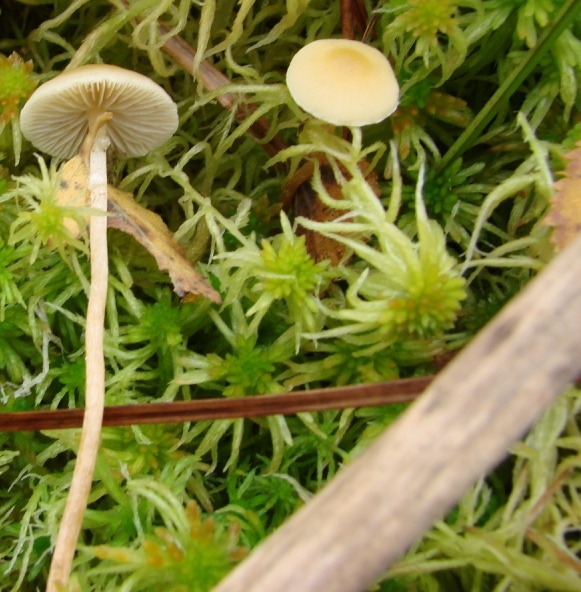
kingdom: Fungi
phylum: Basidiomycota
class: Agaricomycetes
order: Agaricales
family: Strophariaceae
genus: Hypholoma
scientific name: Hypholoma elongatum
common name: slank svovlhat
